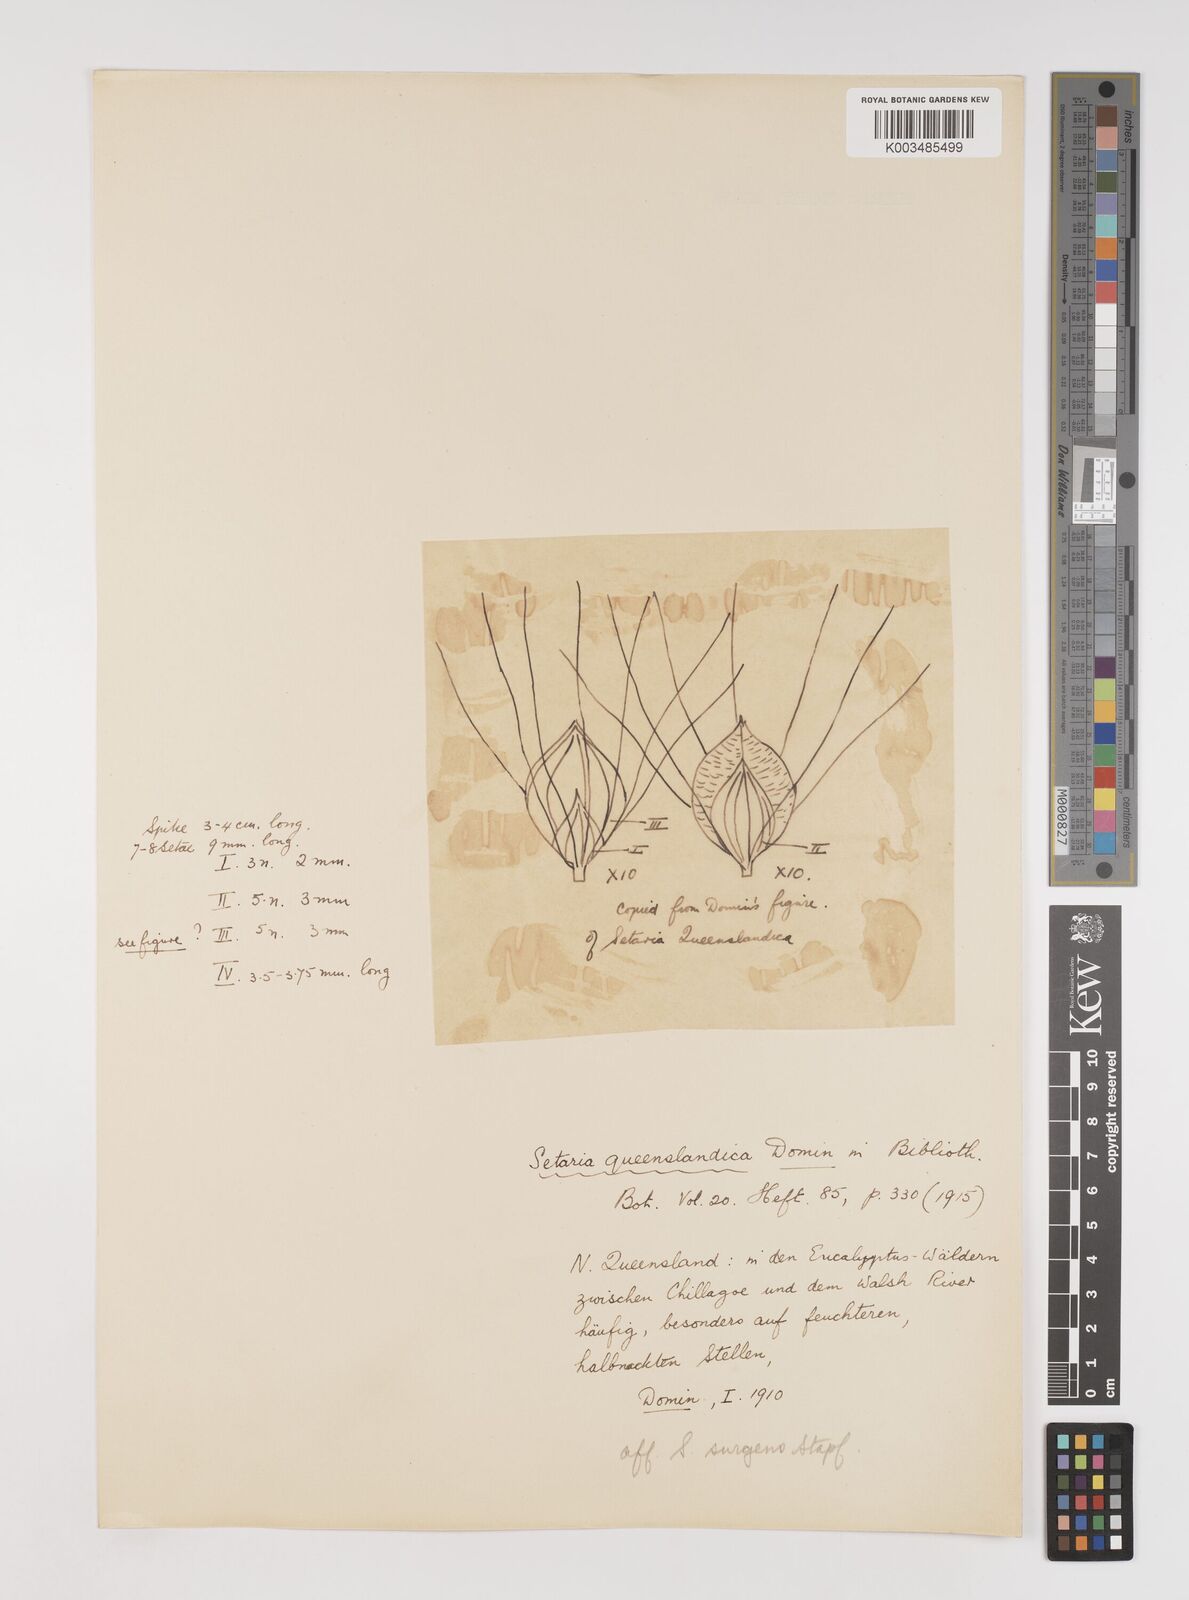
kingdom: Plantae
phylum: Tracheophyta
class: Liliopsida
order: Poales
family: Poaceae
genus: Setaria
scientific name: Setaria queenslandica
